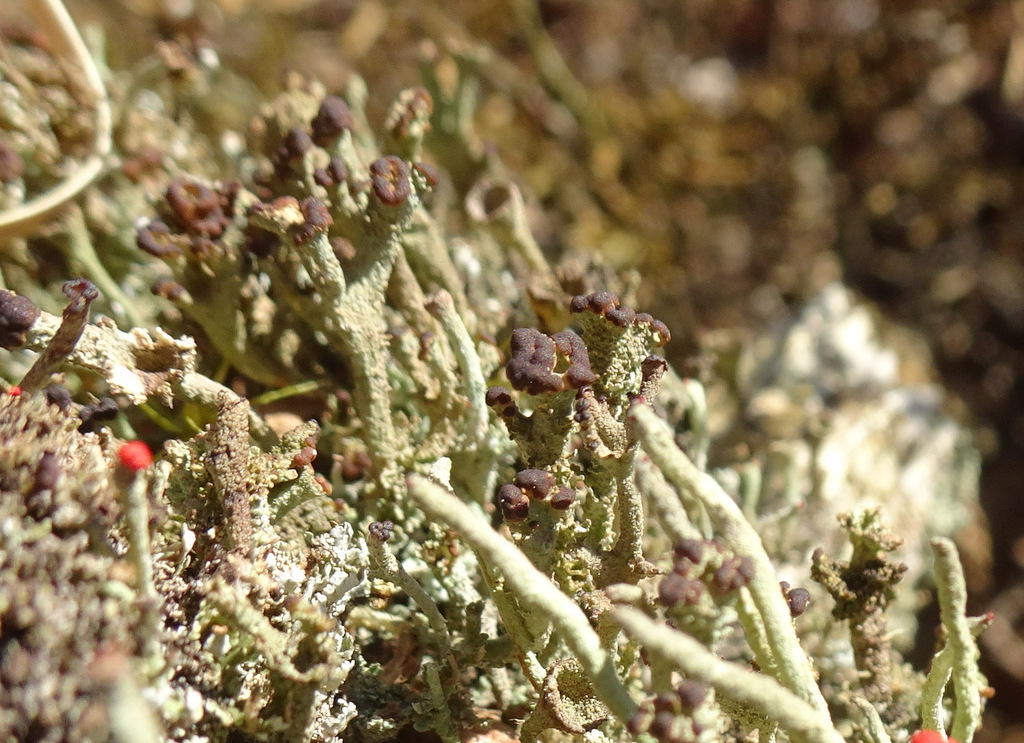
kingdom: Fungi
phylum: Ascomycota
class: Lecanoromycetes
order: Lecanorales
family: Cladoniaceae
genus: Cladonia
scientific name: Cladonia ramulosa
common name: kliddet bægerlav
